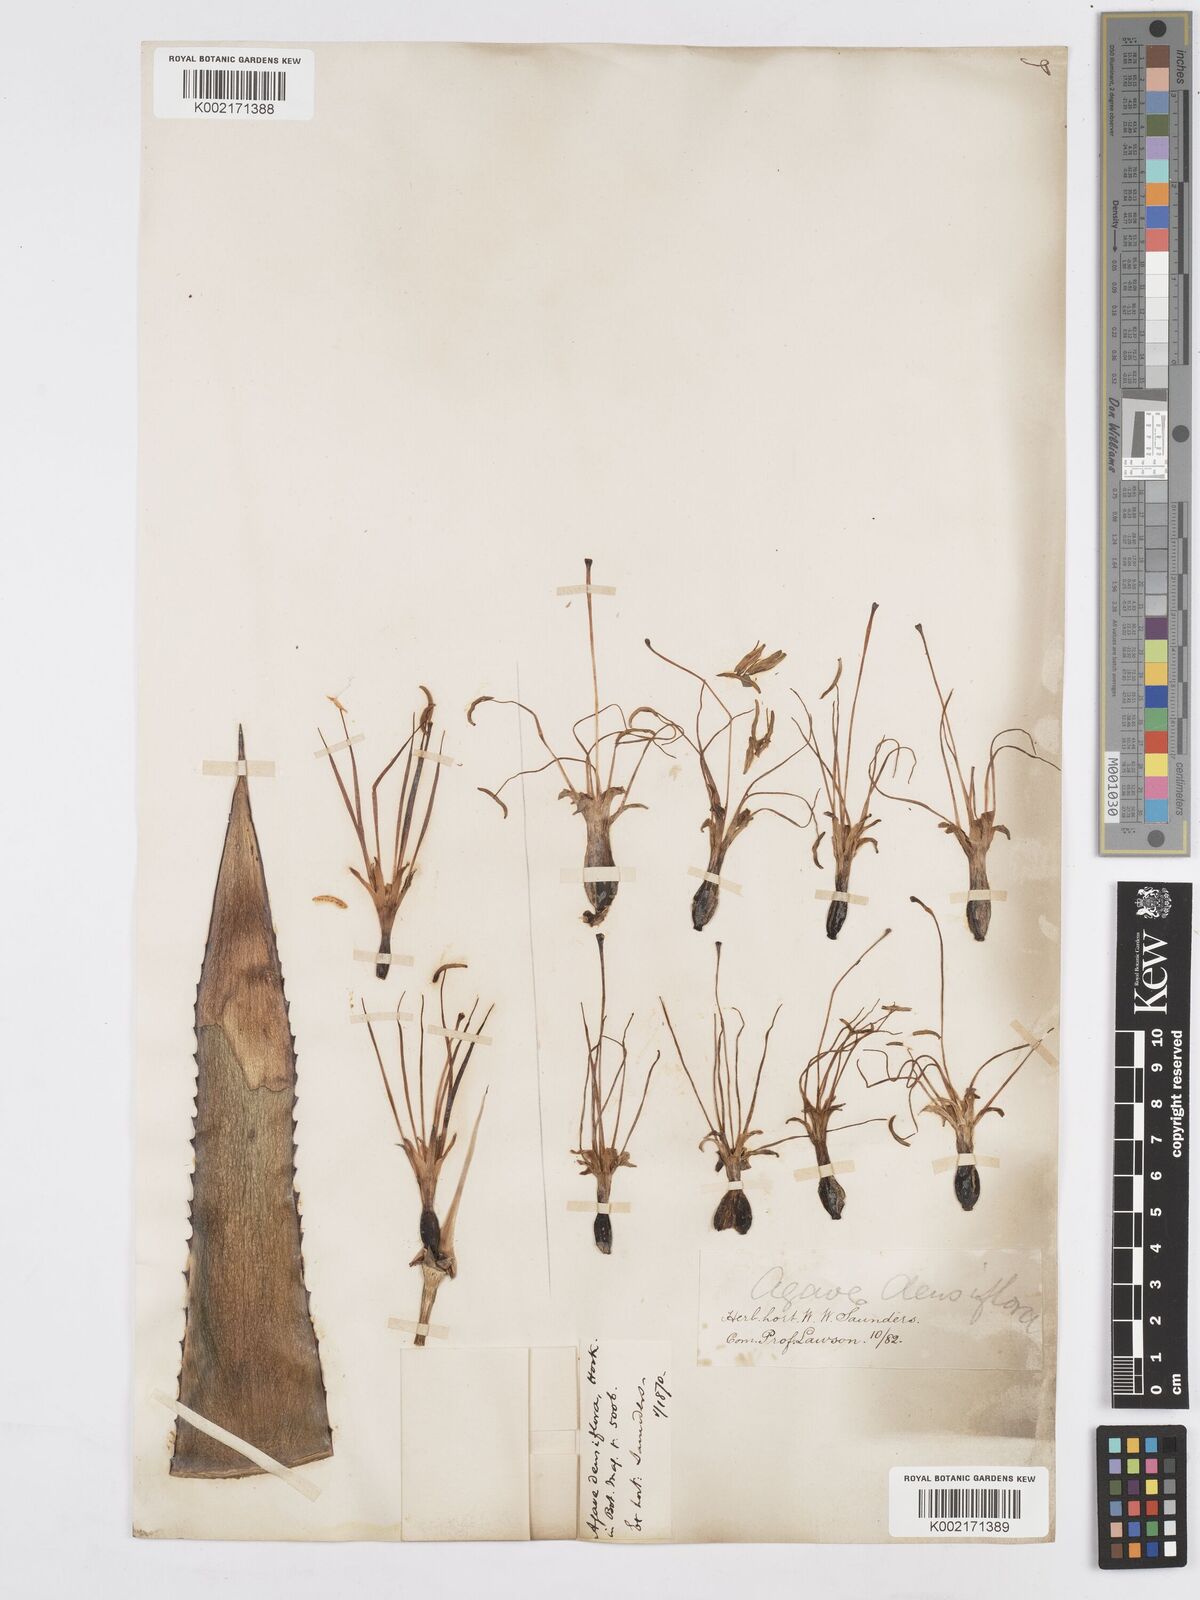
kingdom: Plantae
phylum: Tracheophyta
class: Liliopsida
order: Asparagales
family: Asparagaceae
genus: Agave
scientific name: Agave polyacantha
